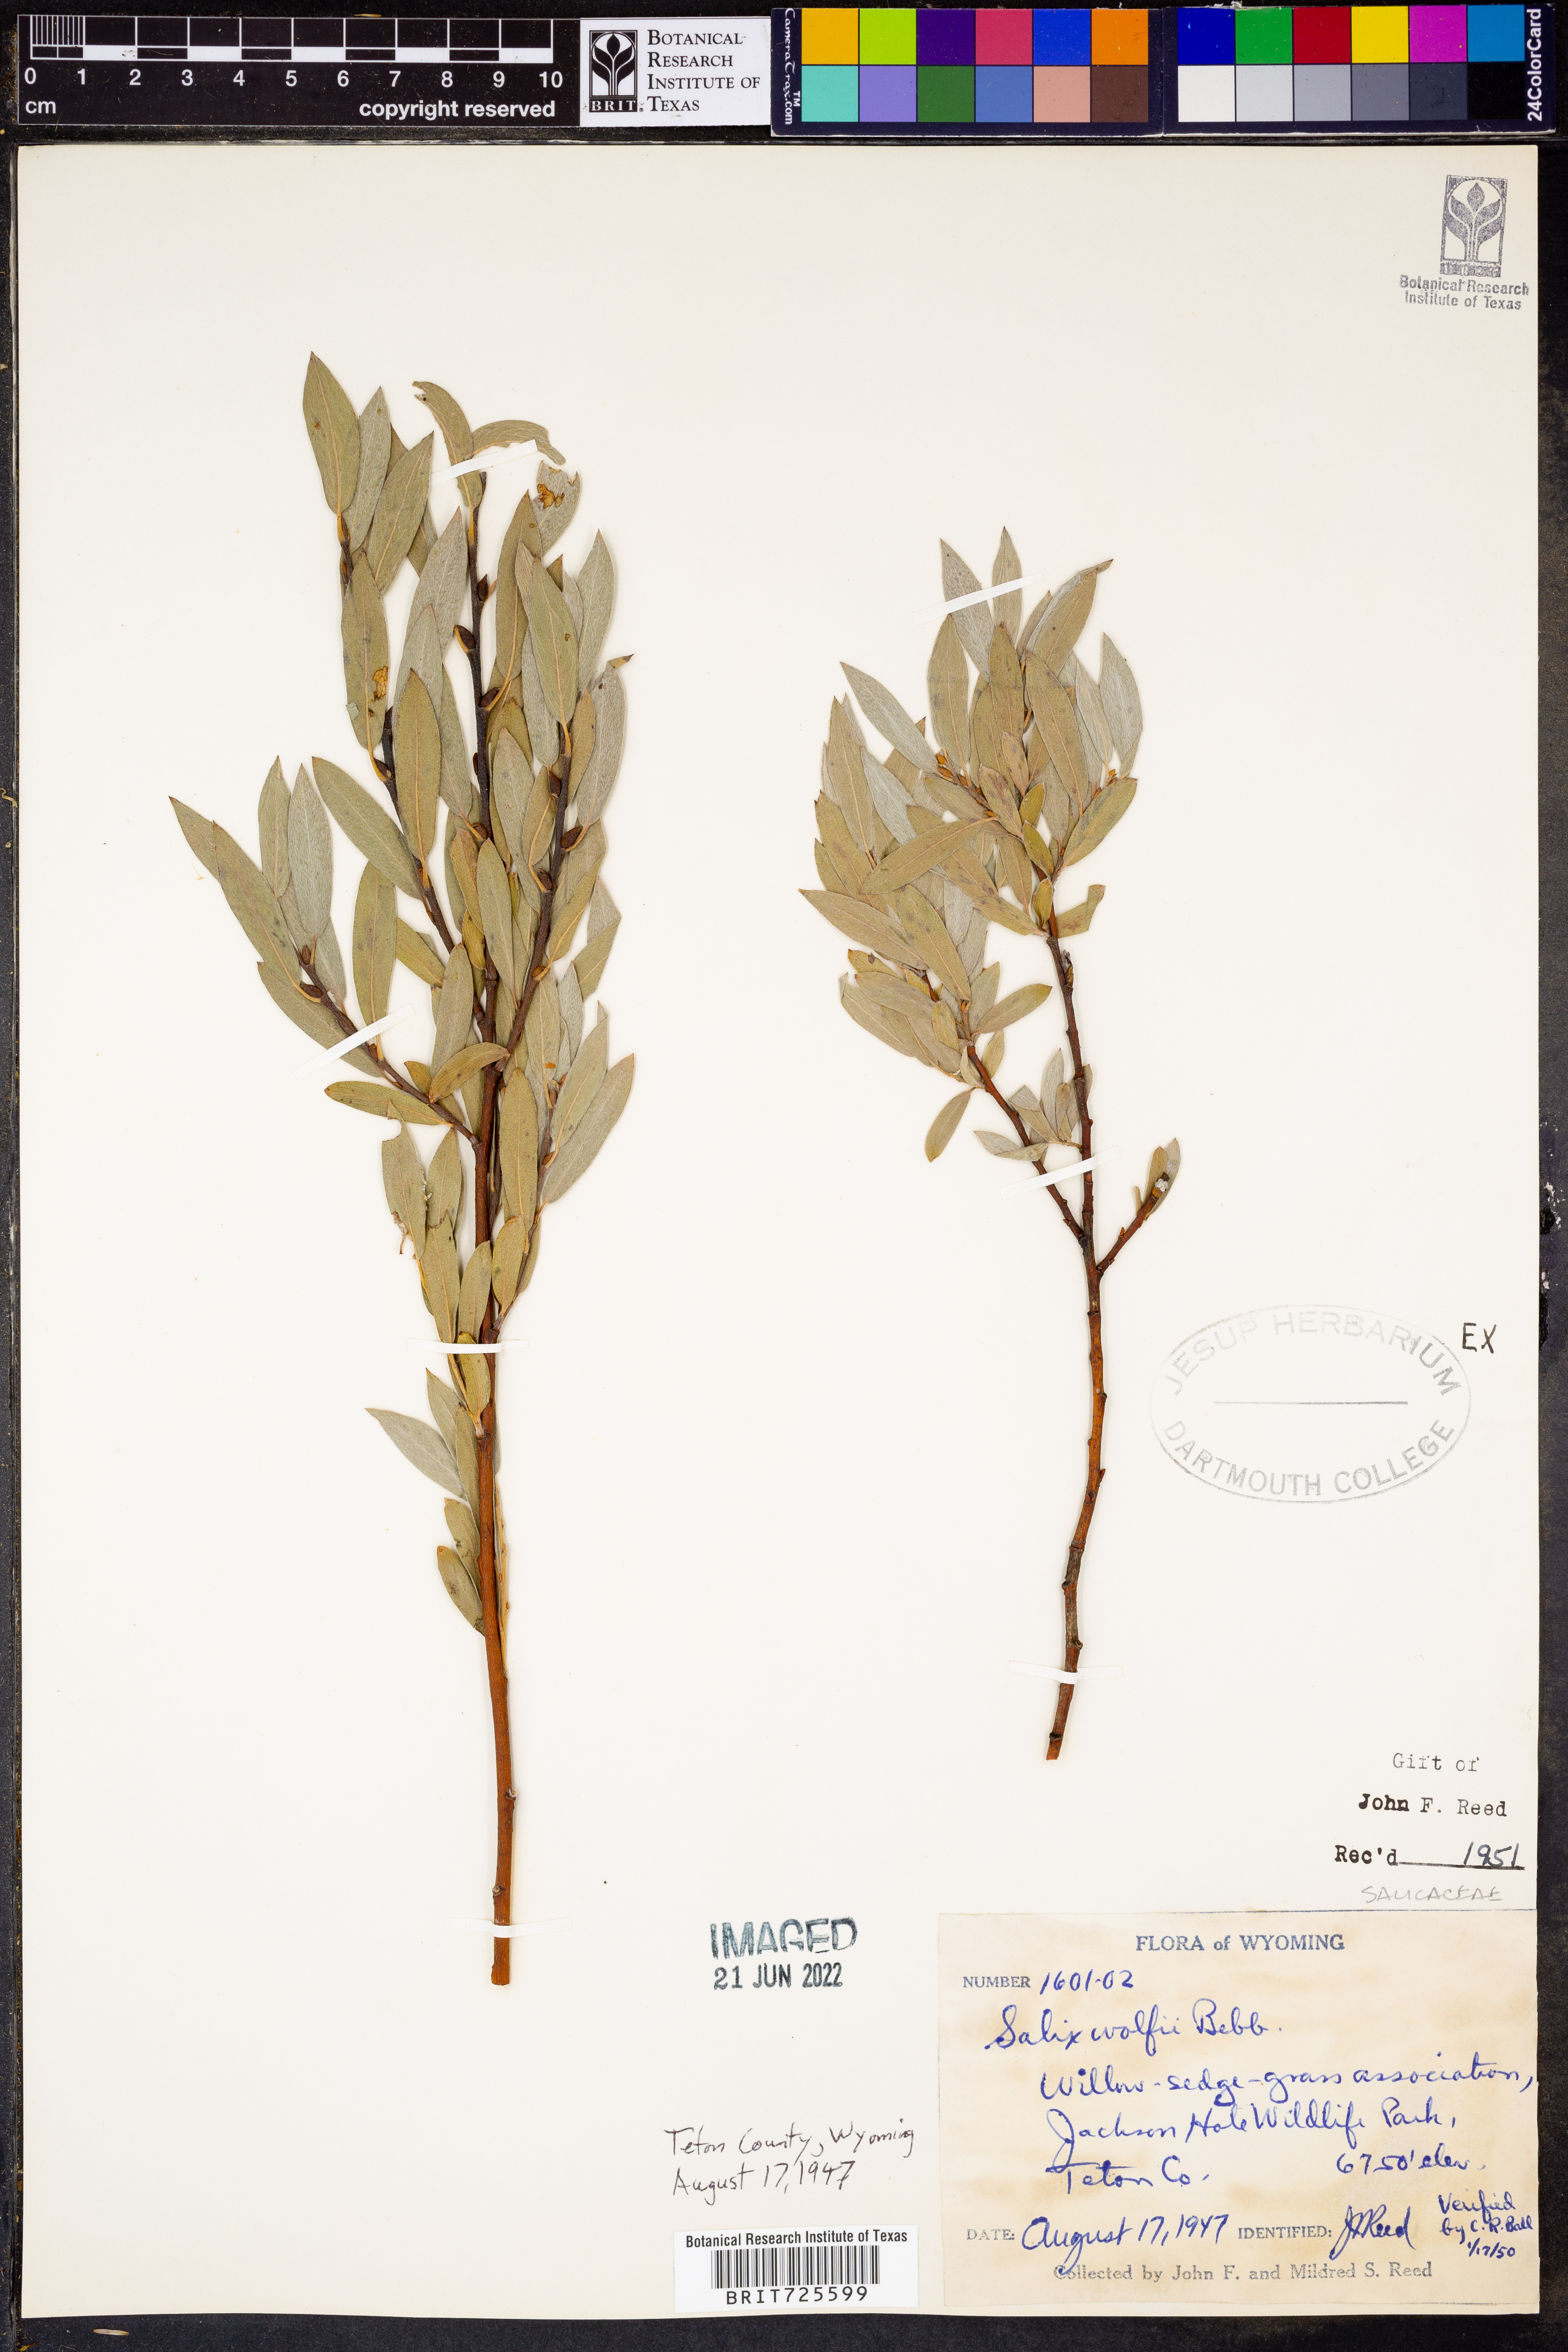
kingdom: Plantae
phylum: Tracheophyta
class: Magnoliopsida
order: Malpighiales
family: Salicaceae
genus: Salix
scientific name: Salix
